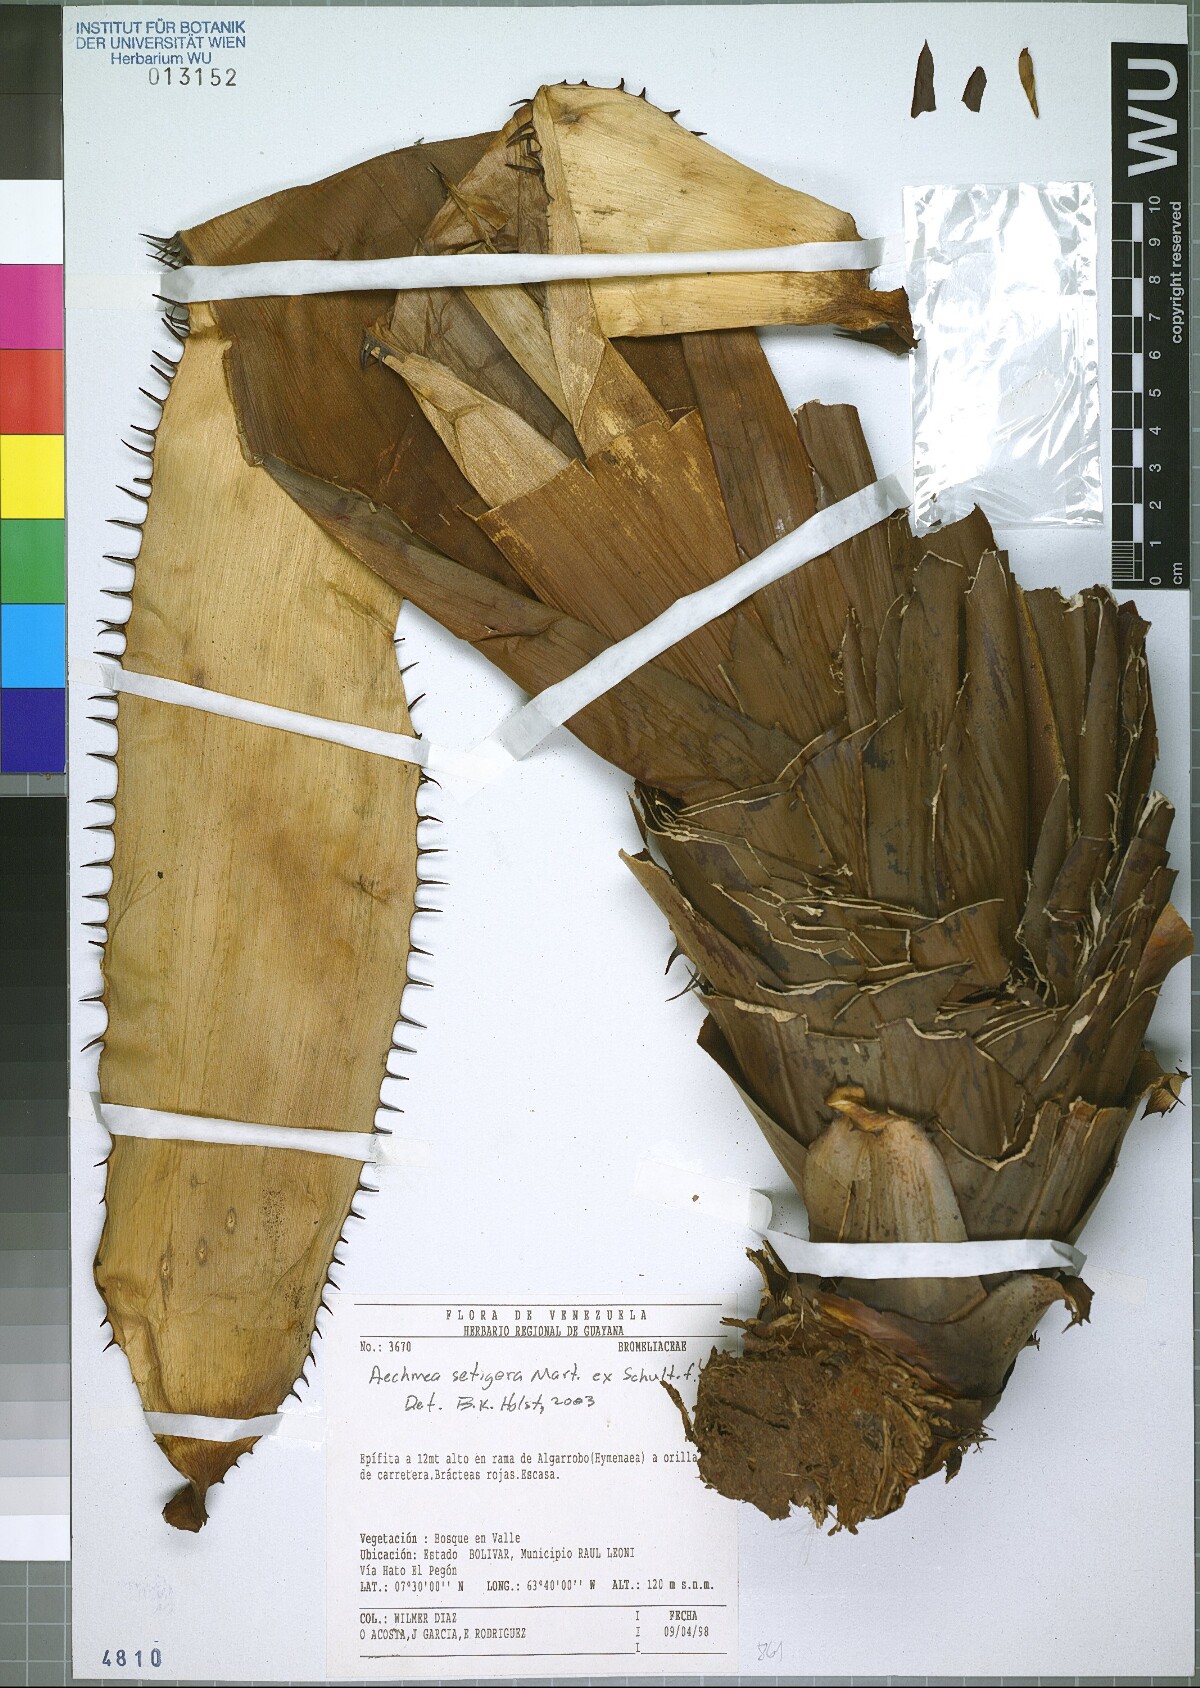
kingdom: Plantae
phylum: Tracheophyta
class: Liliopsida
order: Poales
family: Bromeliaceae
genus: Aechmea
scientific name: Aechmea setigera
